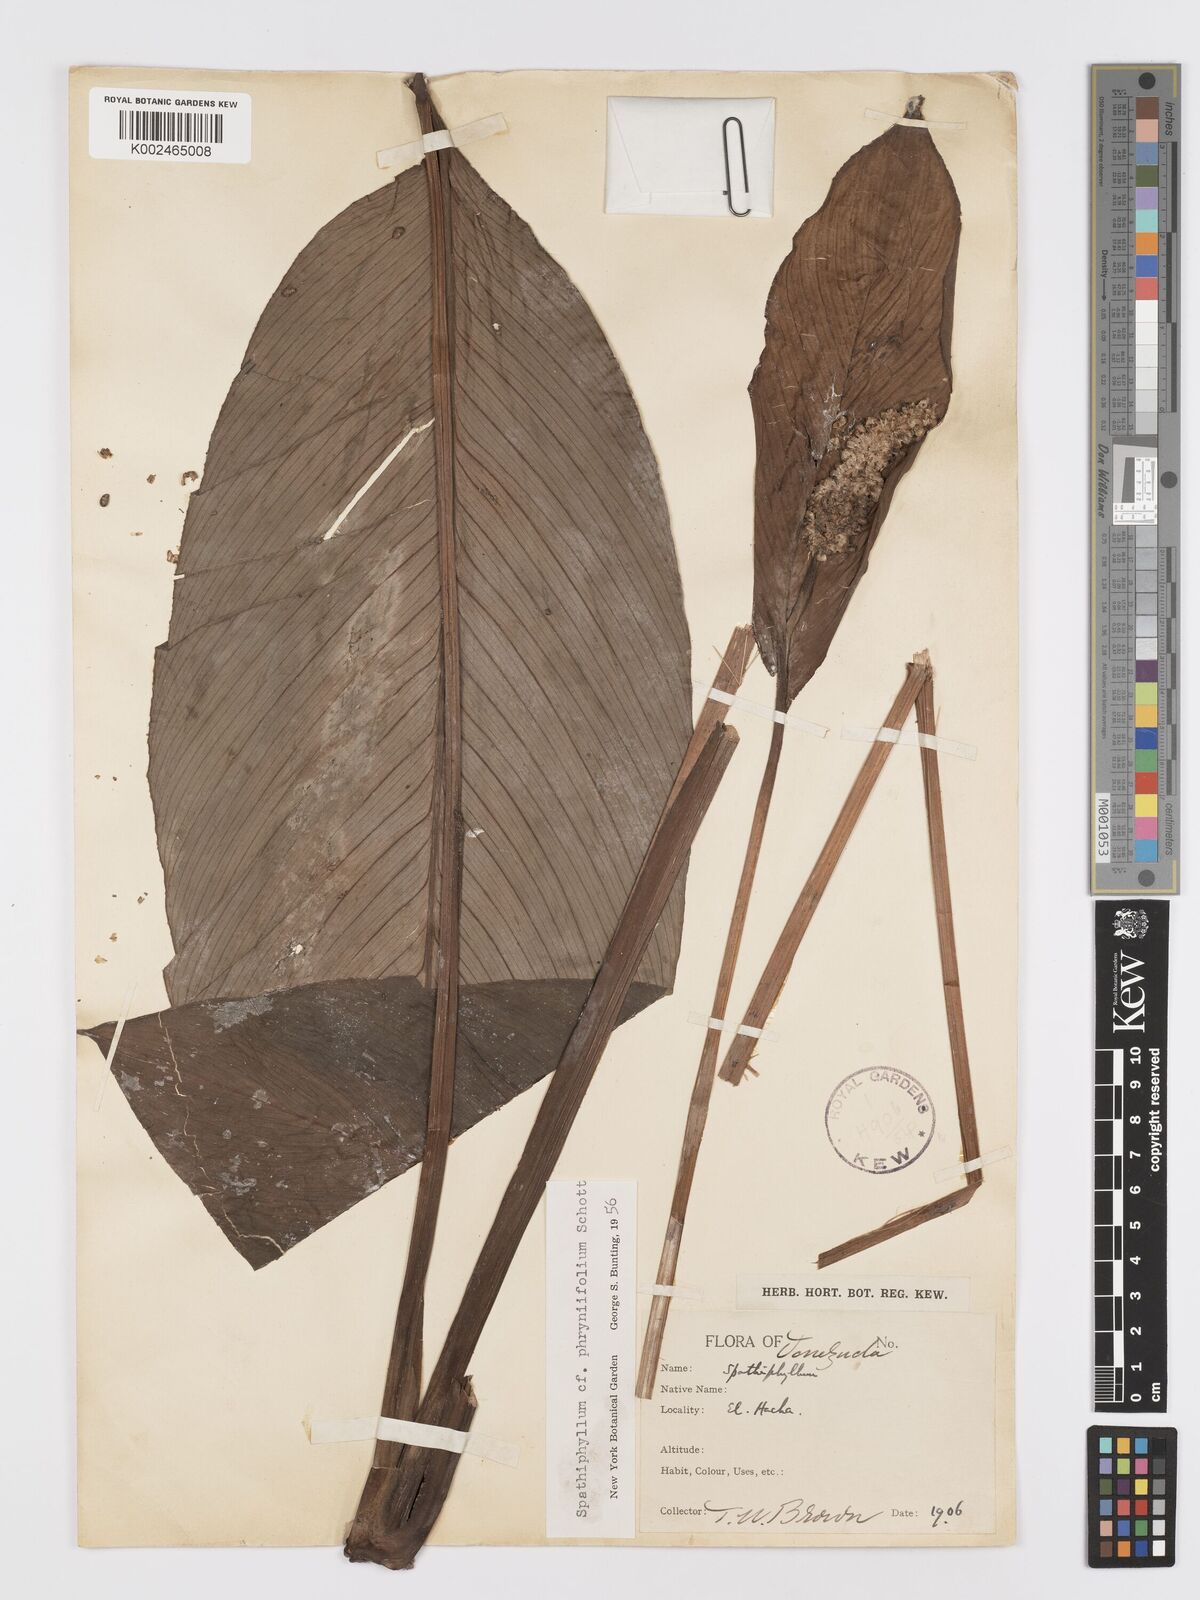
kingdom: Plantae
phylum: Tracheophyta
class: Liliopsida
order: Alismatales
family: Araceae
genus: Spathiphyllum
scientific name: Spathiphyllum phryniifolium
